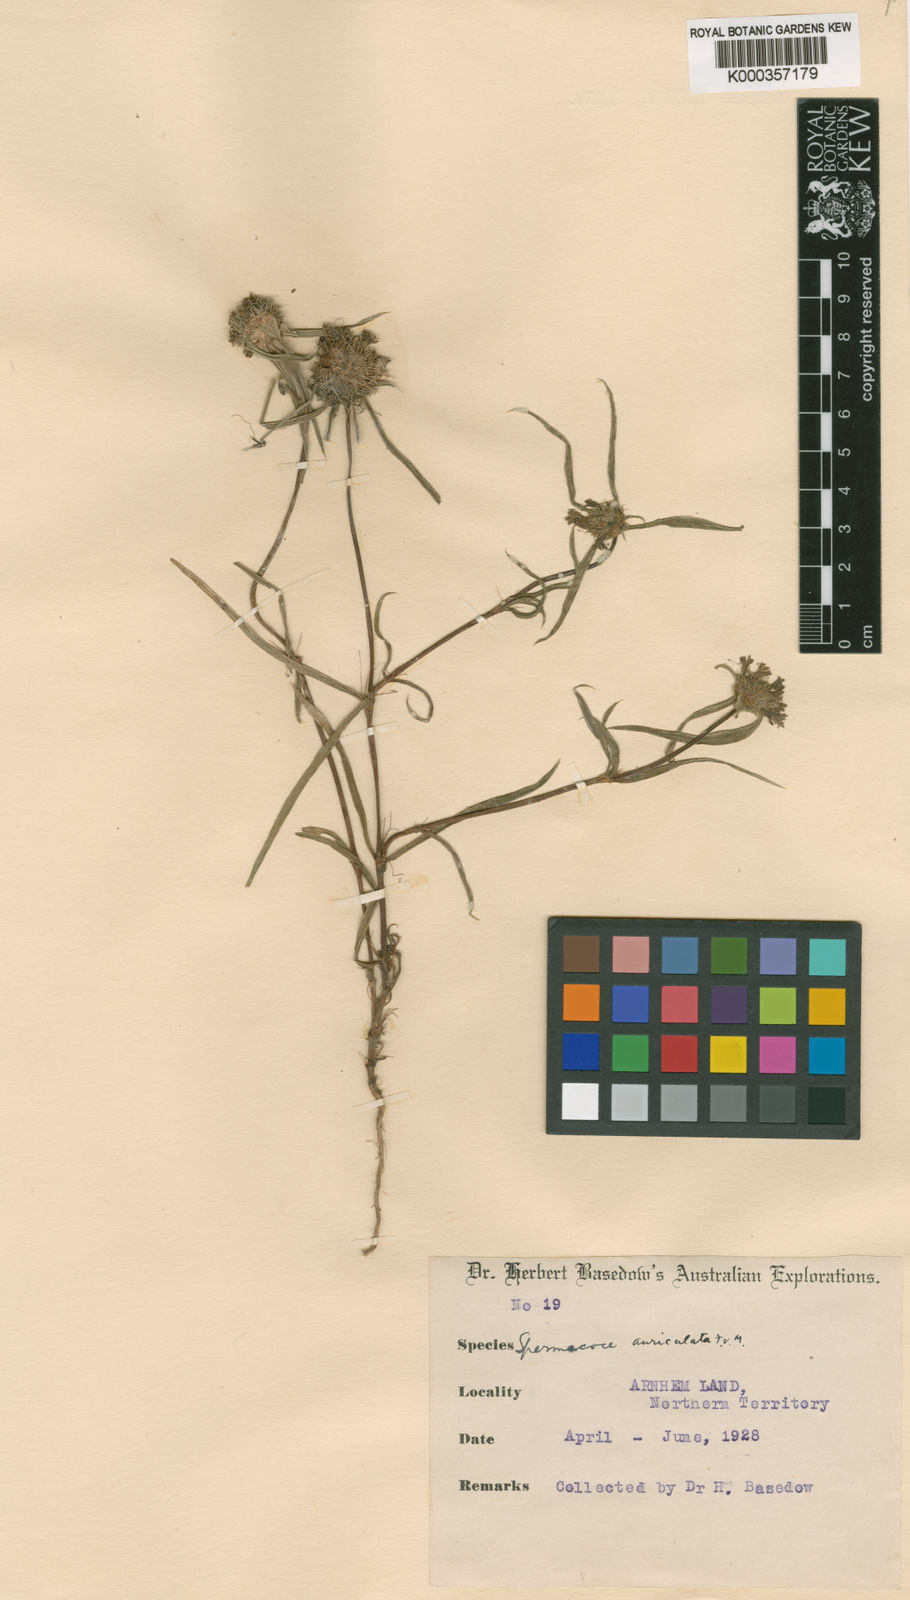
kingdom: Plantae
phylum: Tracheophyta
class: Magnoliopsida
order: Gentianales
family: Rubiaceae
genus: Spermacoce
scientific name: Spermacoce auriculata
